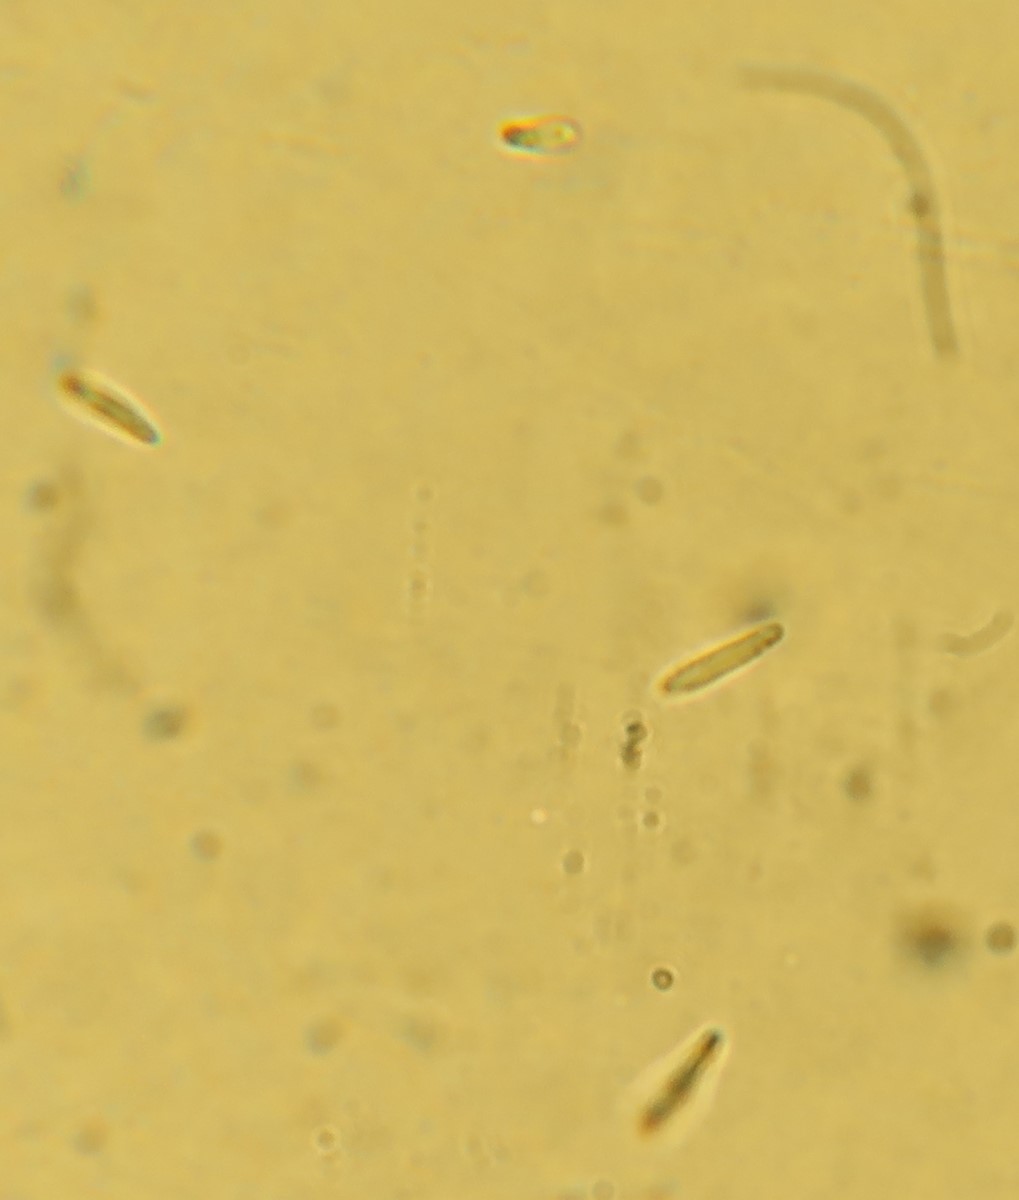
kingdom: Fungi
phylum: Ascomycota
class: Leotiomycetes
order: Helotiales
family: Helotiaceae
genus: Cyathicula
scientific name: Cyathicula
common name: stilkskive
